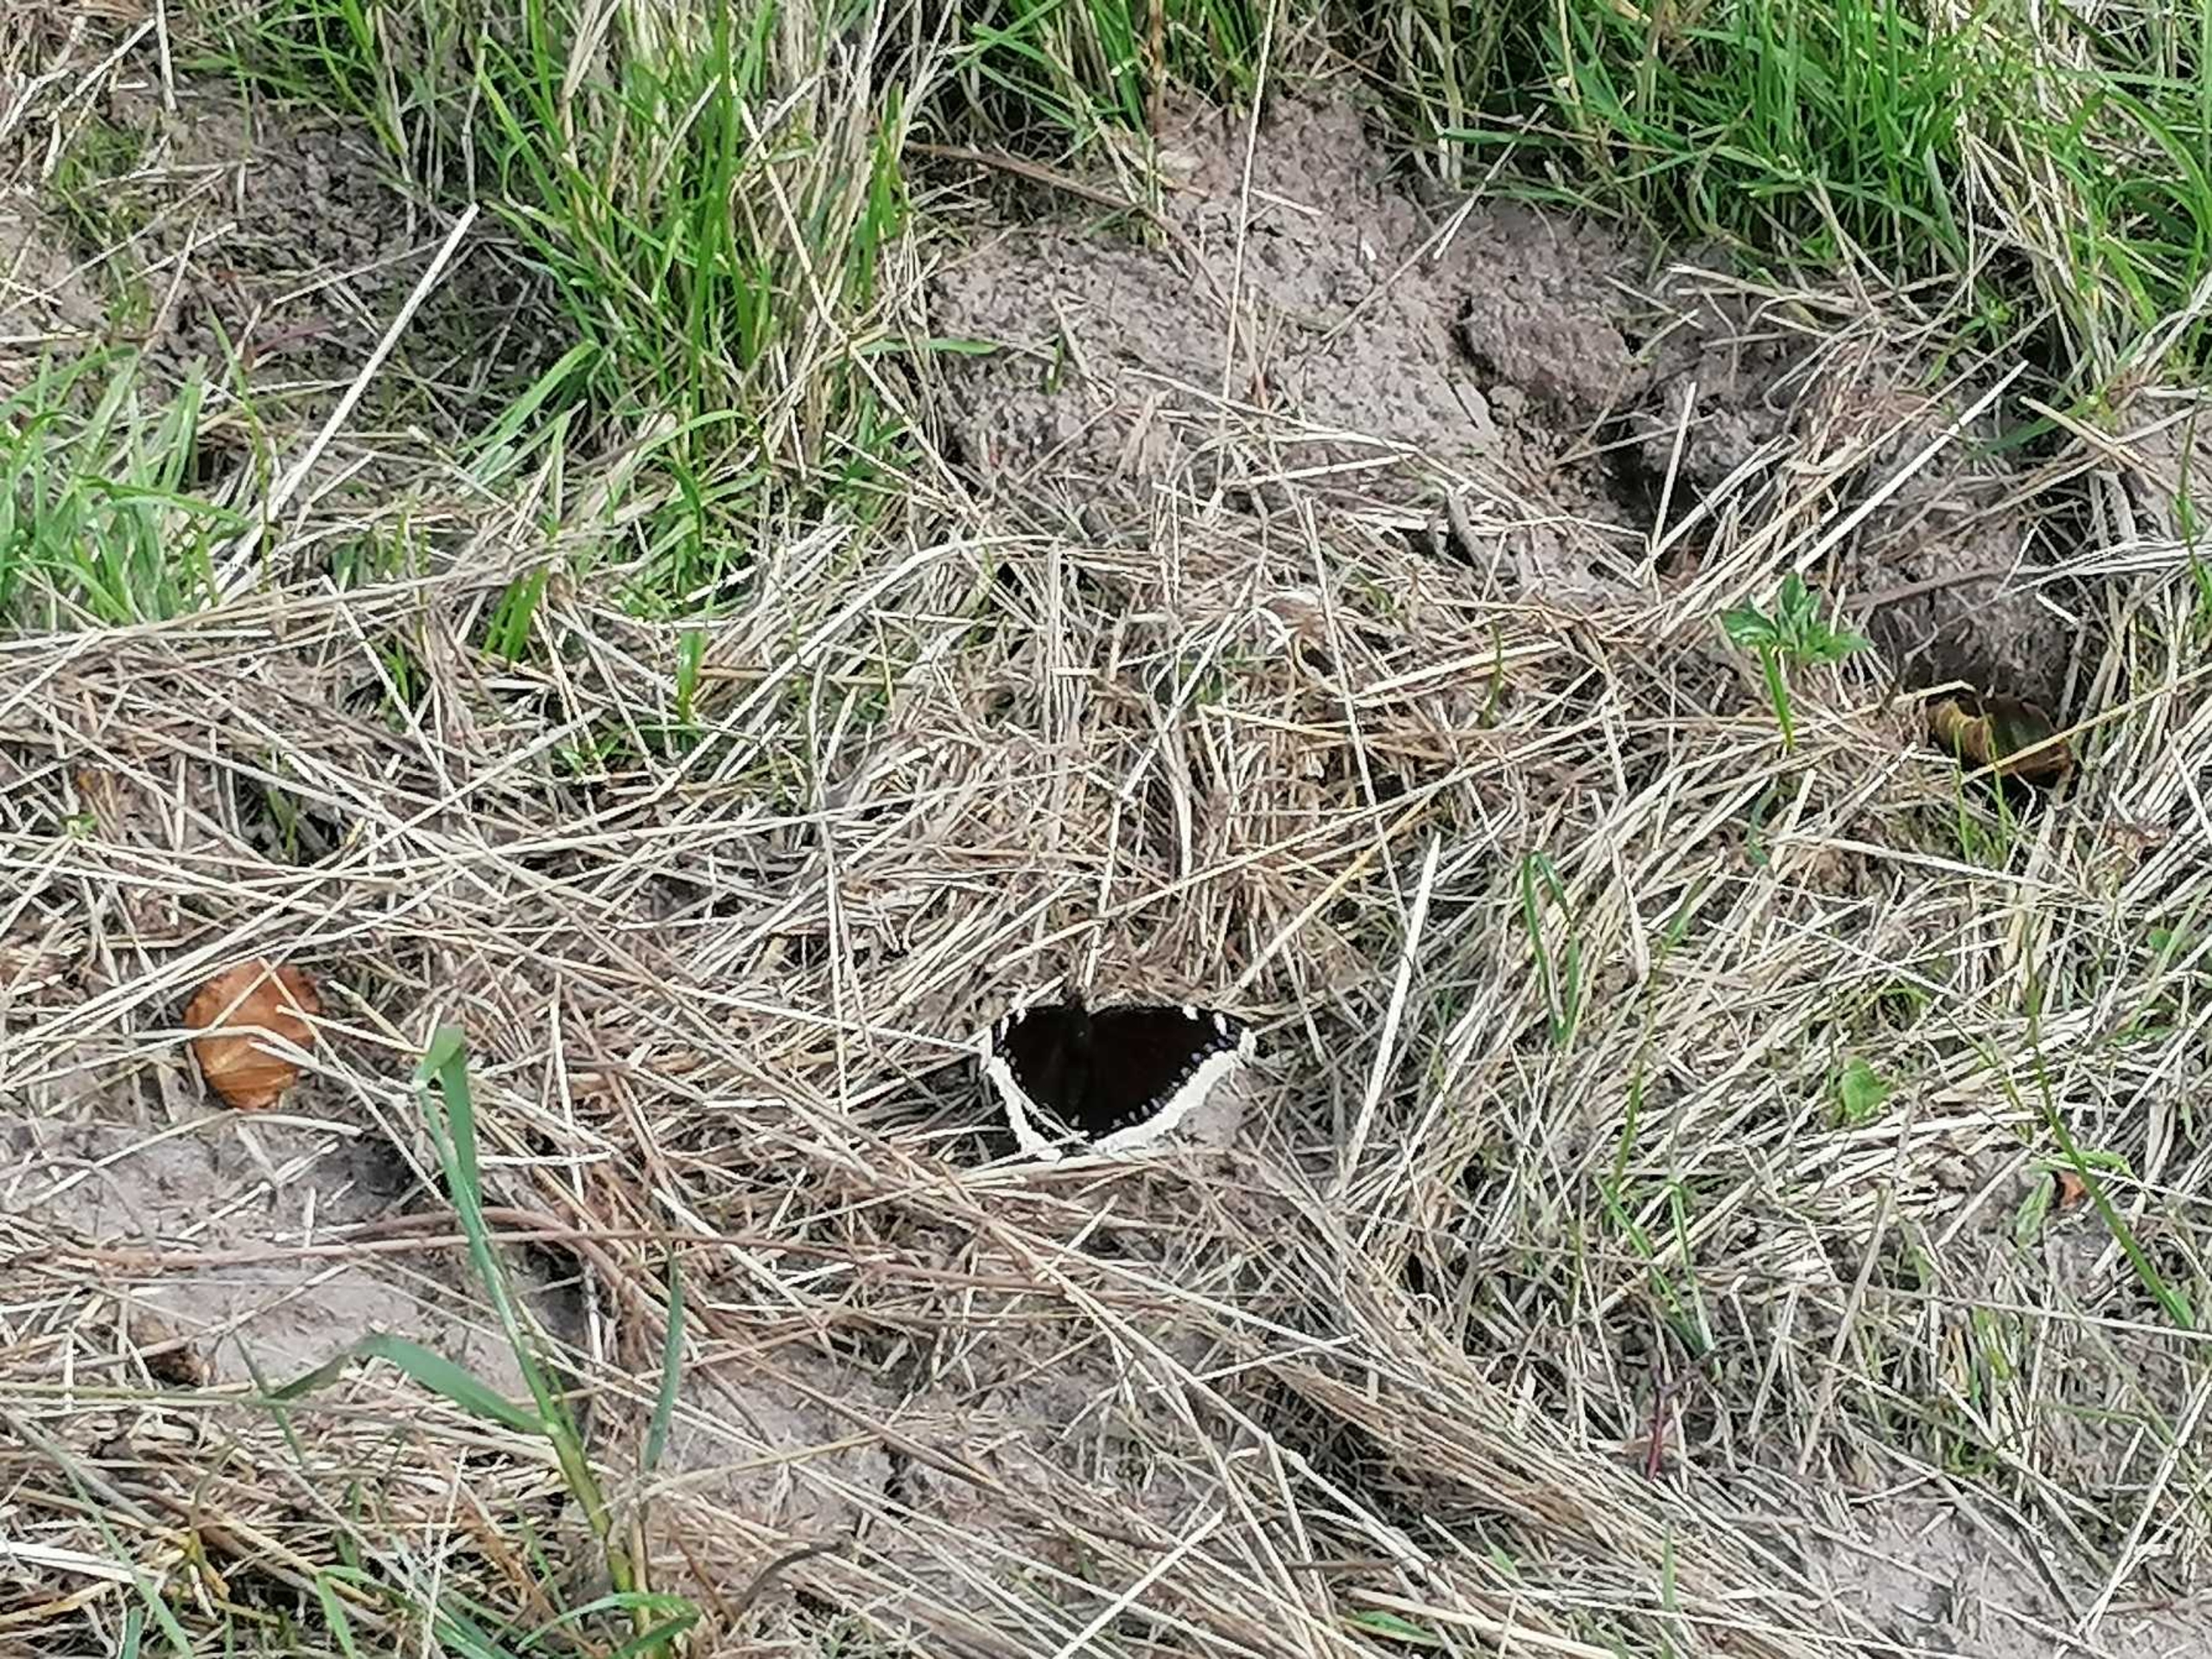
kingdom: Animalia
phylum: Arthropoda
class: Insecta
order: Lepidoptera
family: Nymphalidae
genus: Nymphalis
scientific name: Nymphalis antiopa
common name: Sørgekåbe
